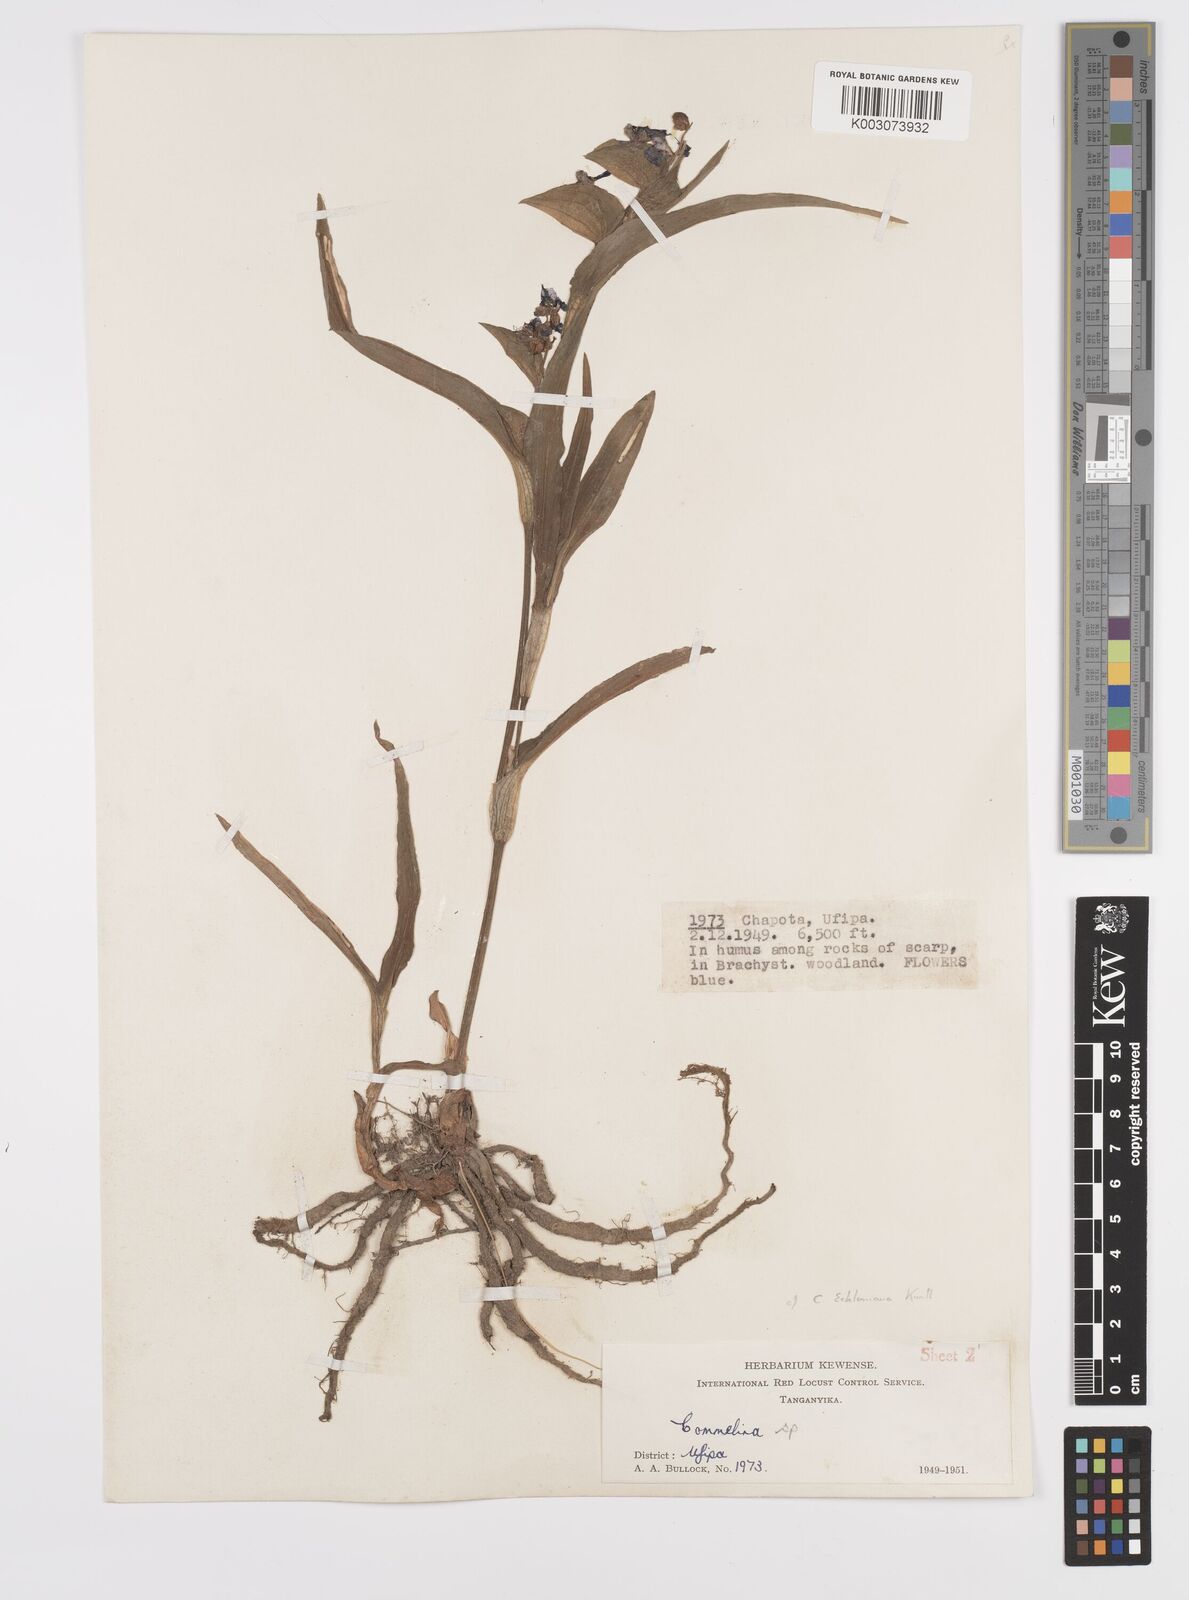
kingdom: Plantae
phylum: Tracheophyta
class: Liliopsida
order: Commelinales
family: Commelinaceae
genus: Commelina
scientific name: Commelina eckloniana
